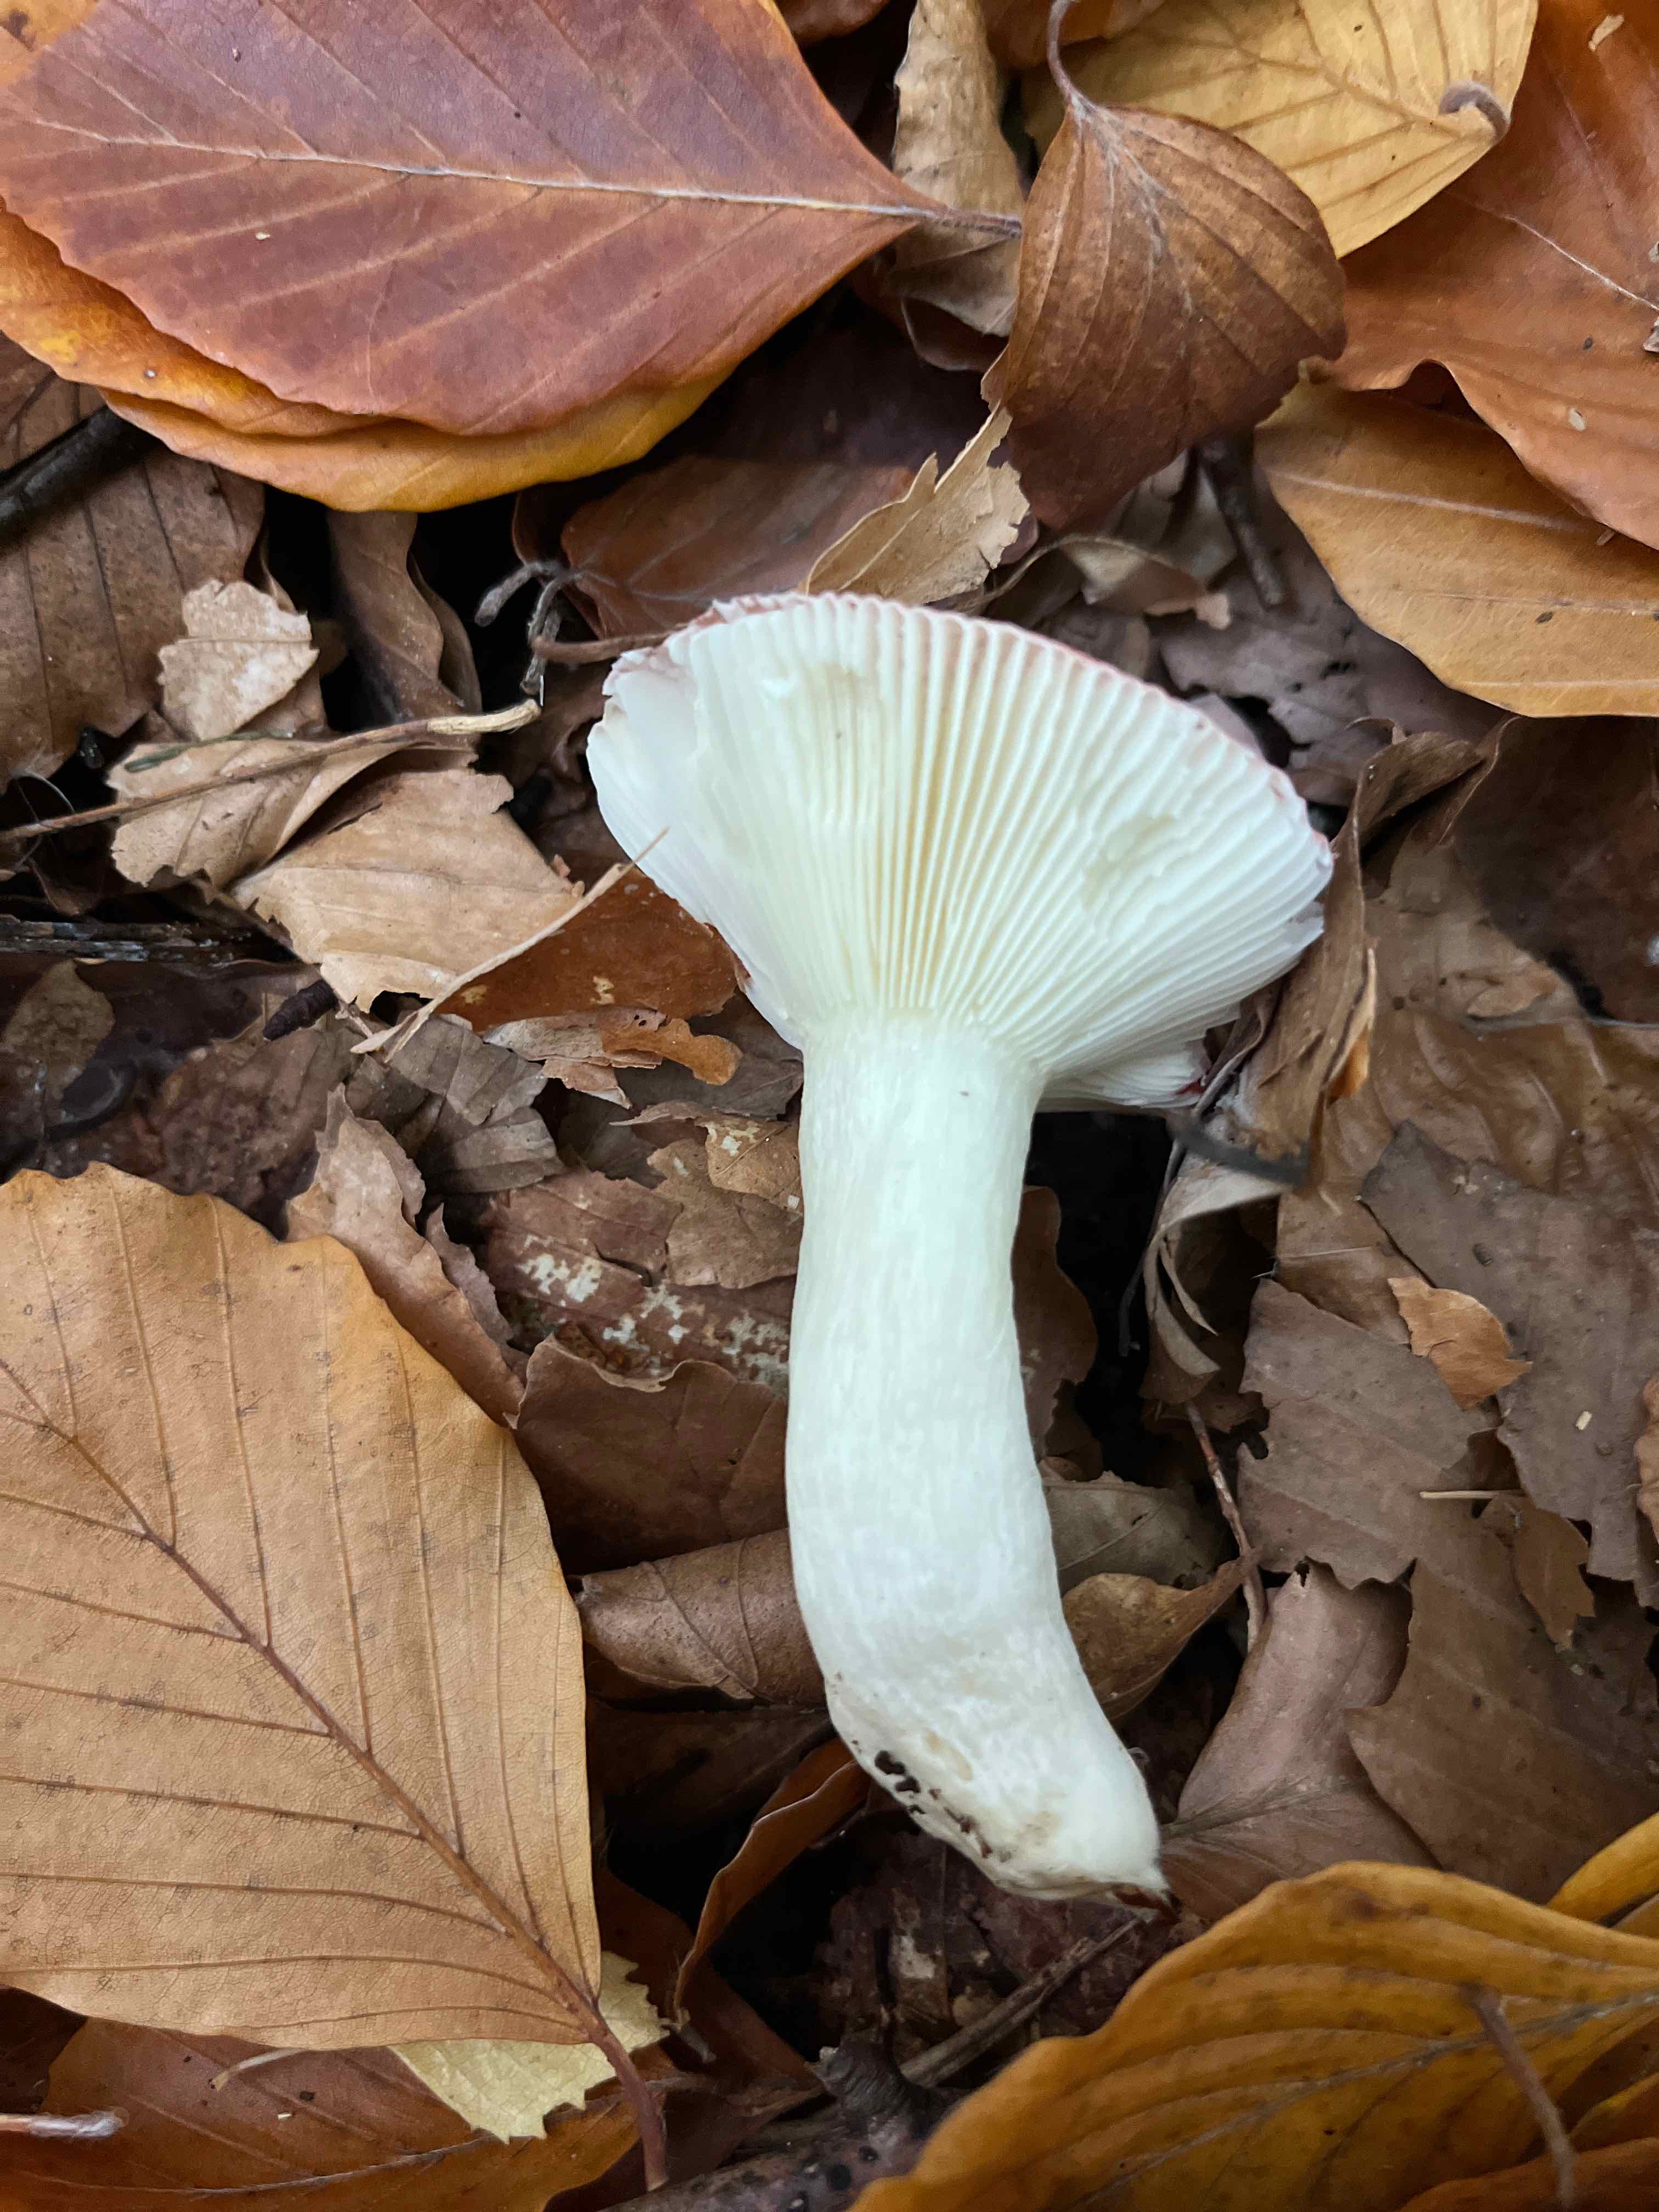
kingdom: Fungi
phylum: Basidiomycota
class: Agaricomycetes
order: Russulales
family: Russulaceae
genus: Russula
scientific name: Russula nobilis
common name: lille gift-skørhat
